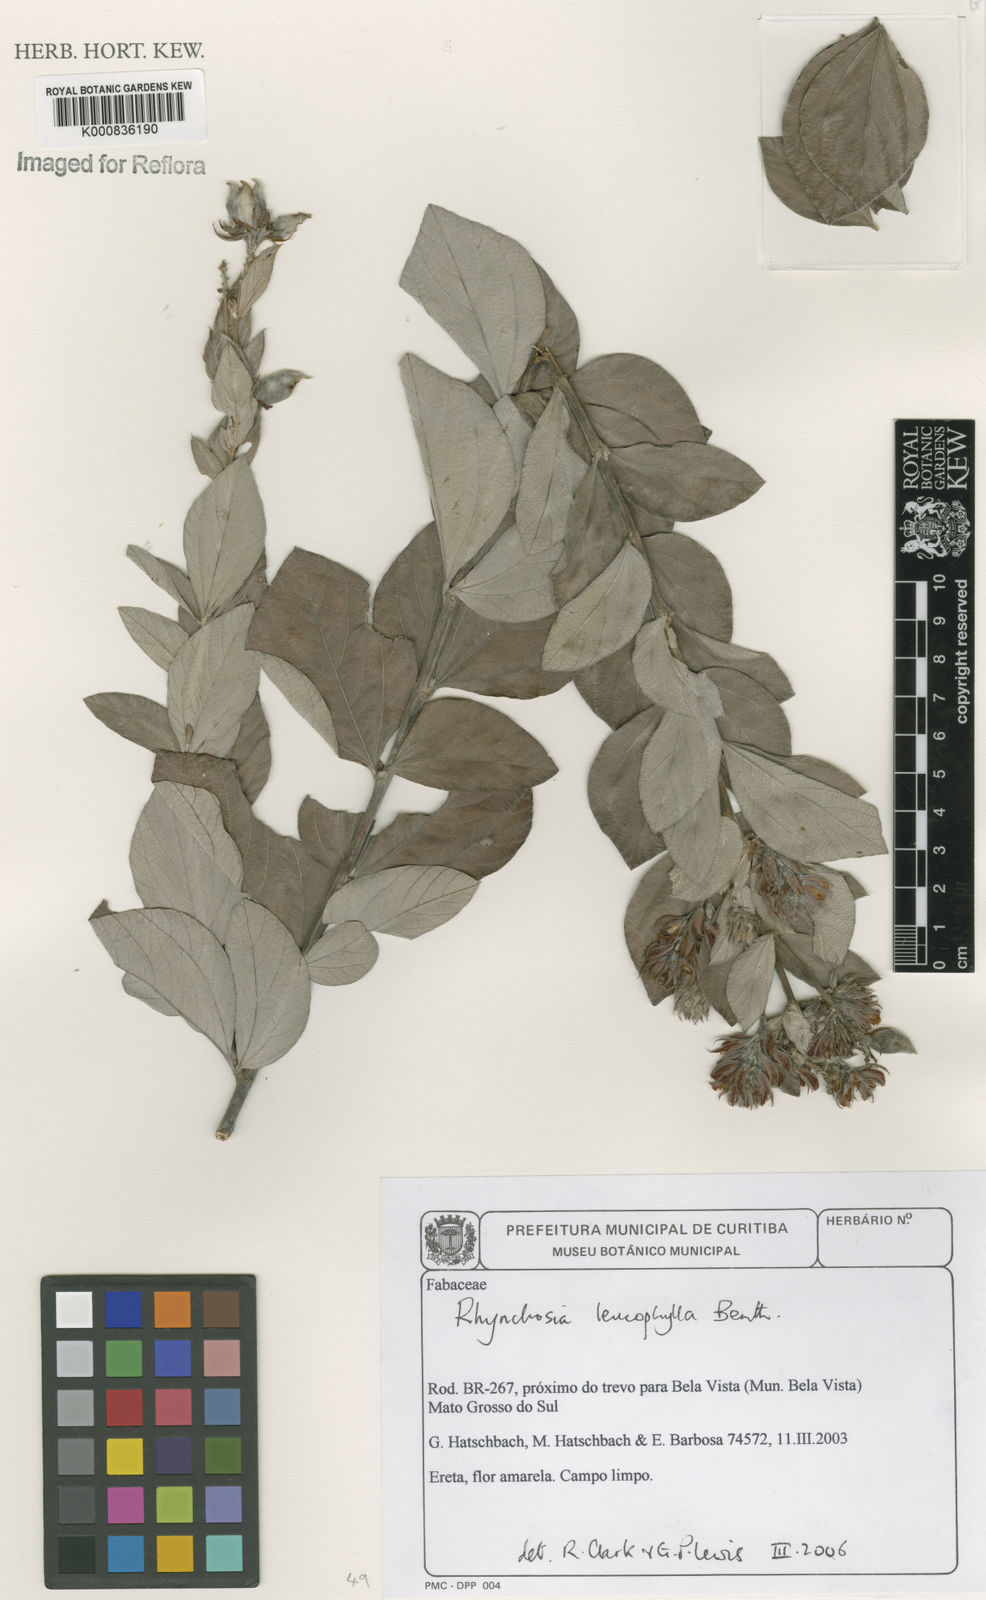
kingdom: Plantae
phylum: Tracheophyta
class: Magnoliopsida
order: Fabales
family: Fabaceae
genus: Rhynchosia
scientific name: Rhynchosia leucophylla
